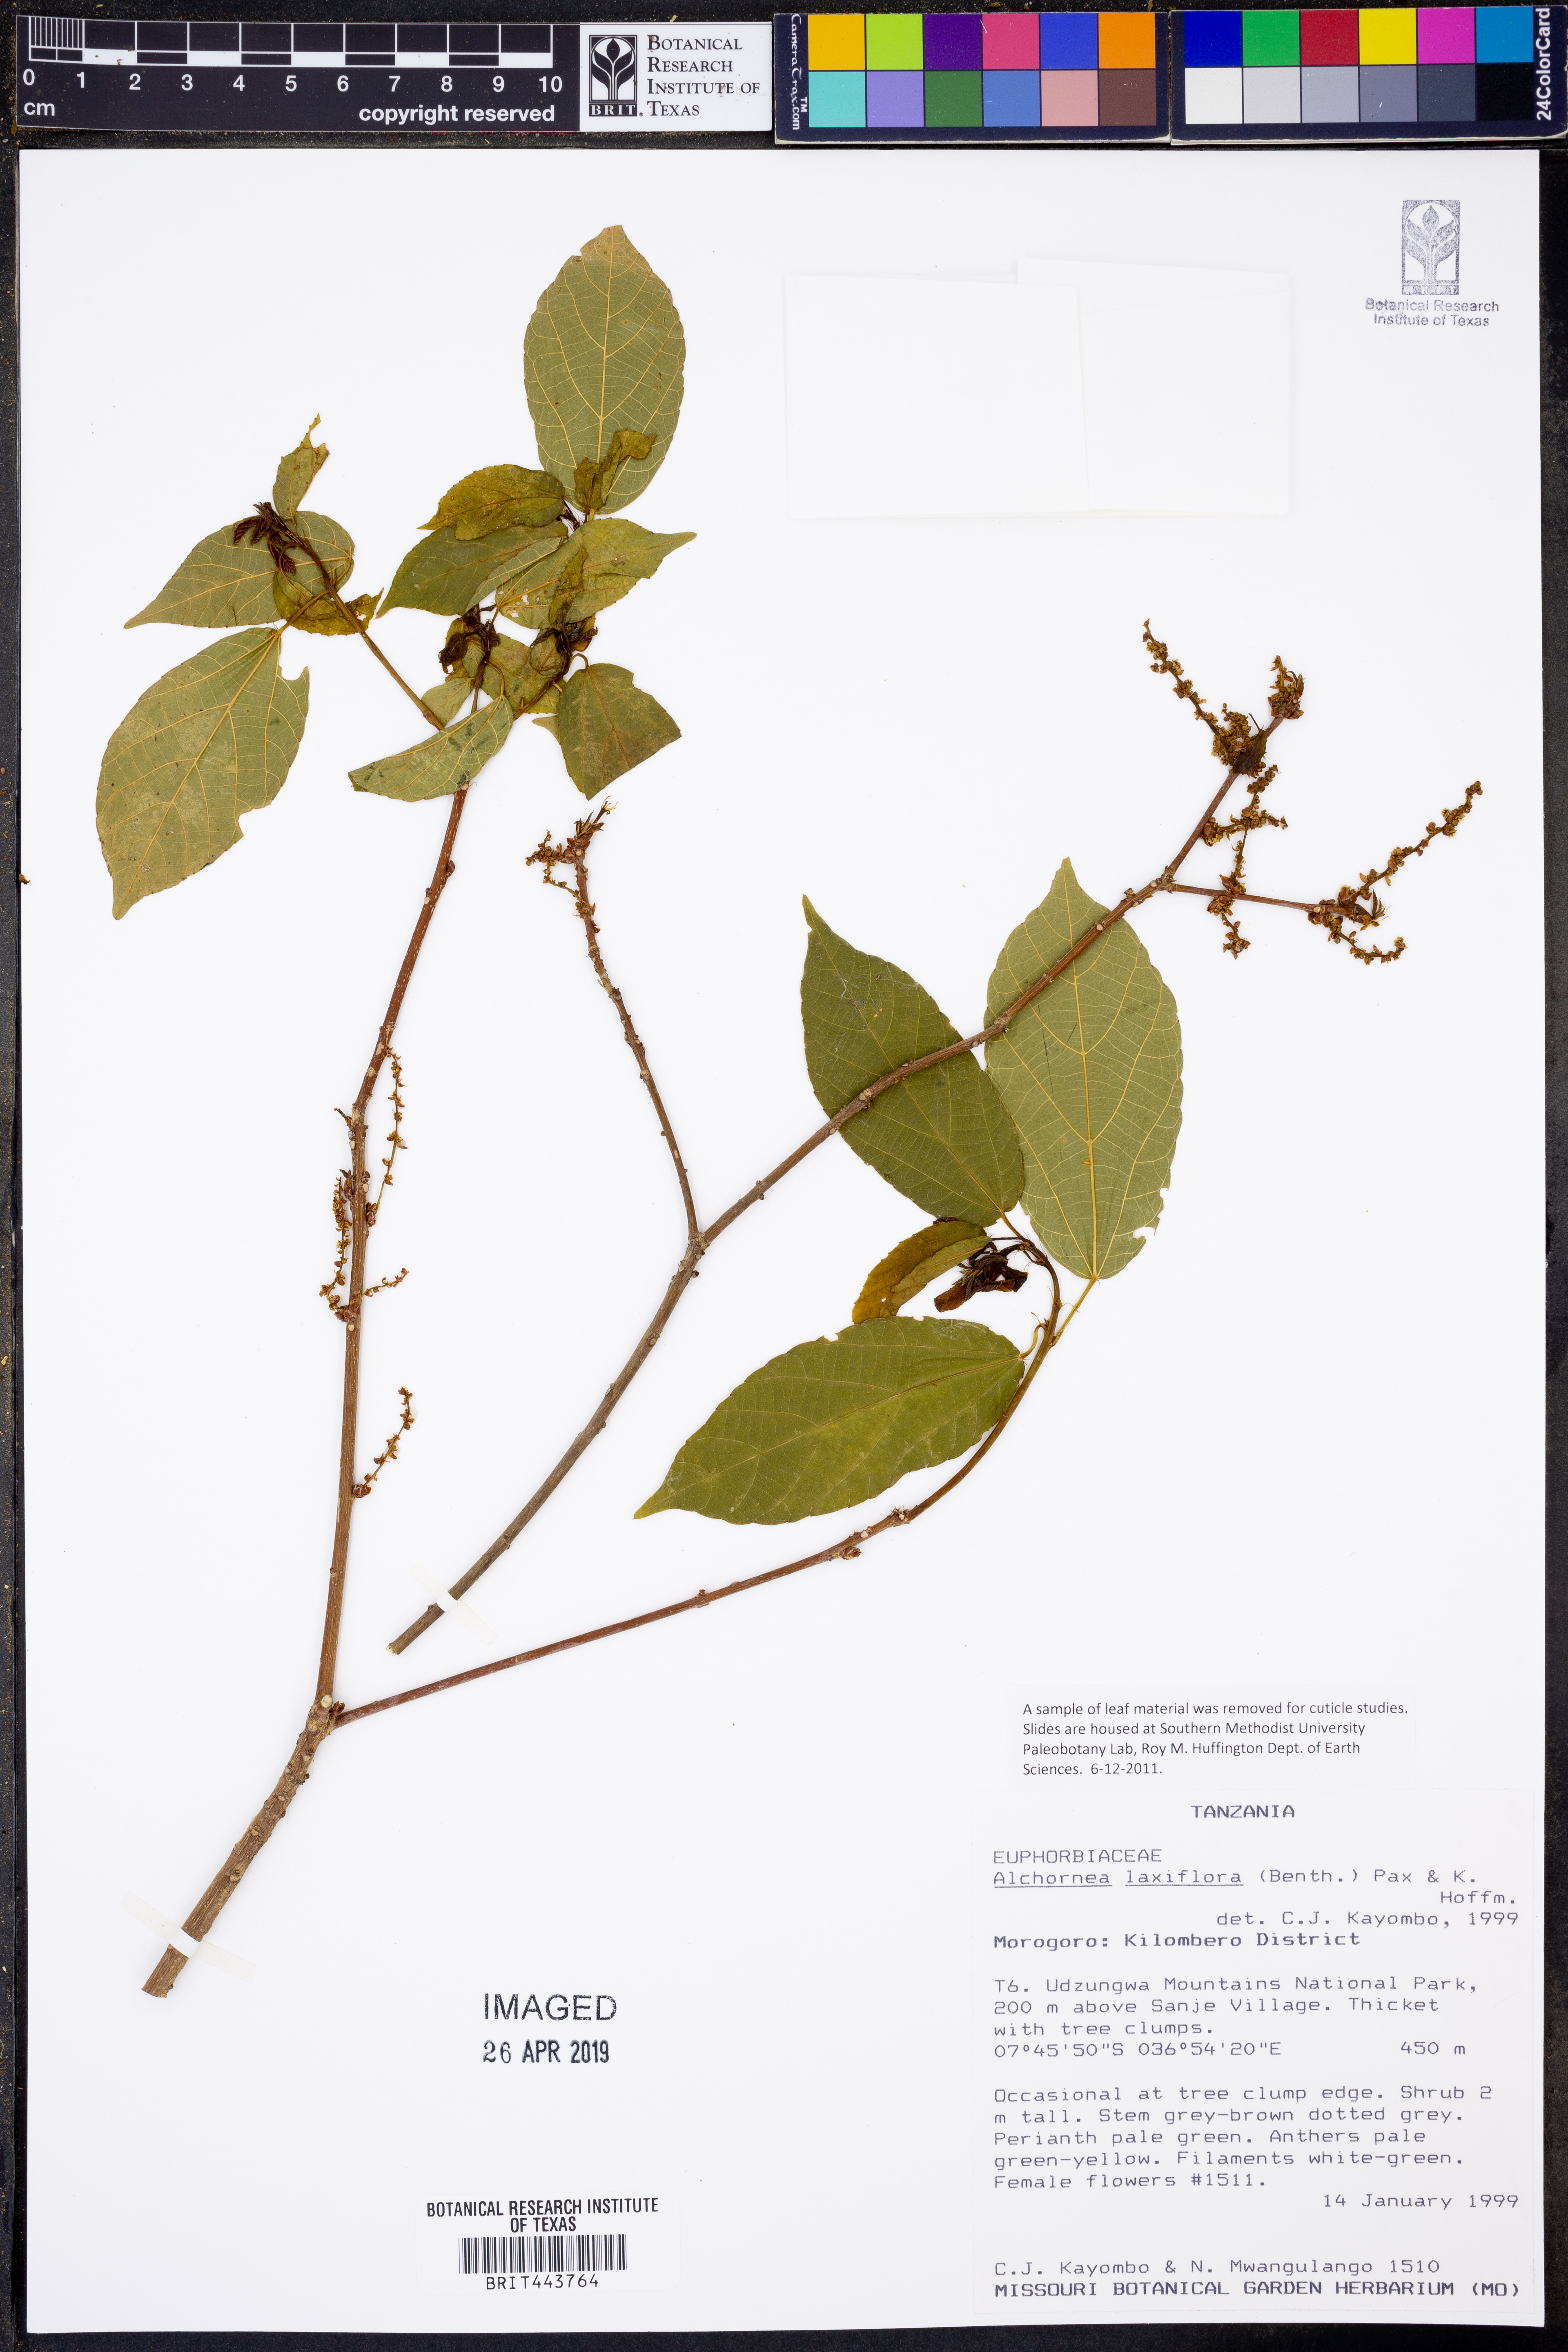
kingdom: Plantae
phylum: Tracheophyta
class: Magnoliopsida
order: Malpighiales
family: Euphorbiaceae
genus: Alchornea
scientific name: Alchornea laxiflora
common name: Lowveld bead-string
